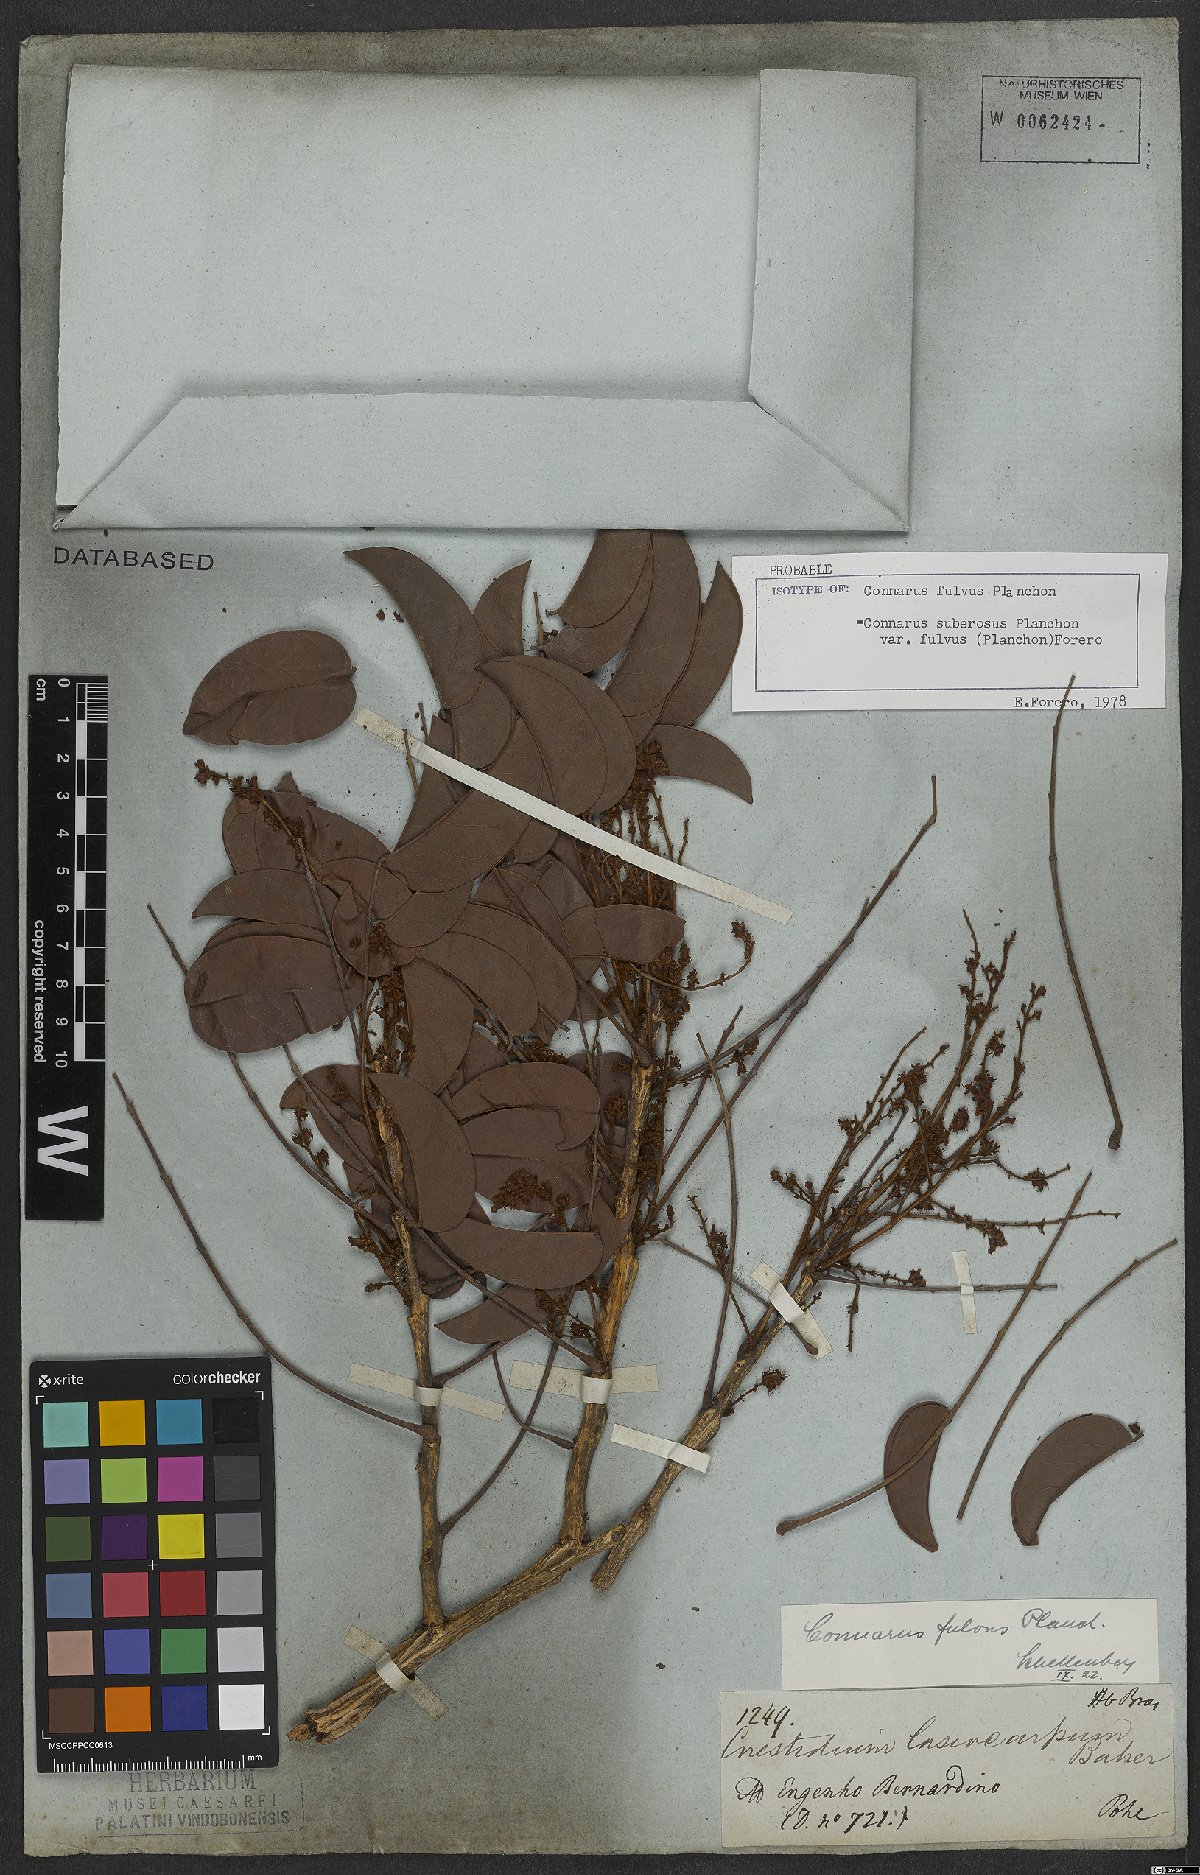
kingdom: Plantae
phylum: Tracheophyta
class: Magnoliopsida
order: Oxalidales
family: Connaraceae
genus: Connarus
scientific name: Connarus suberosus
